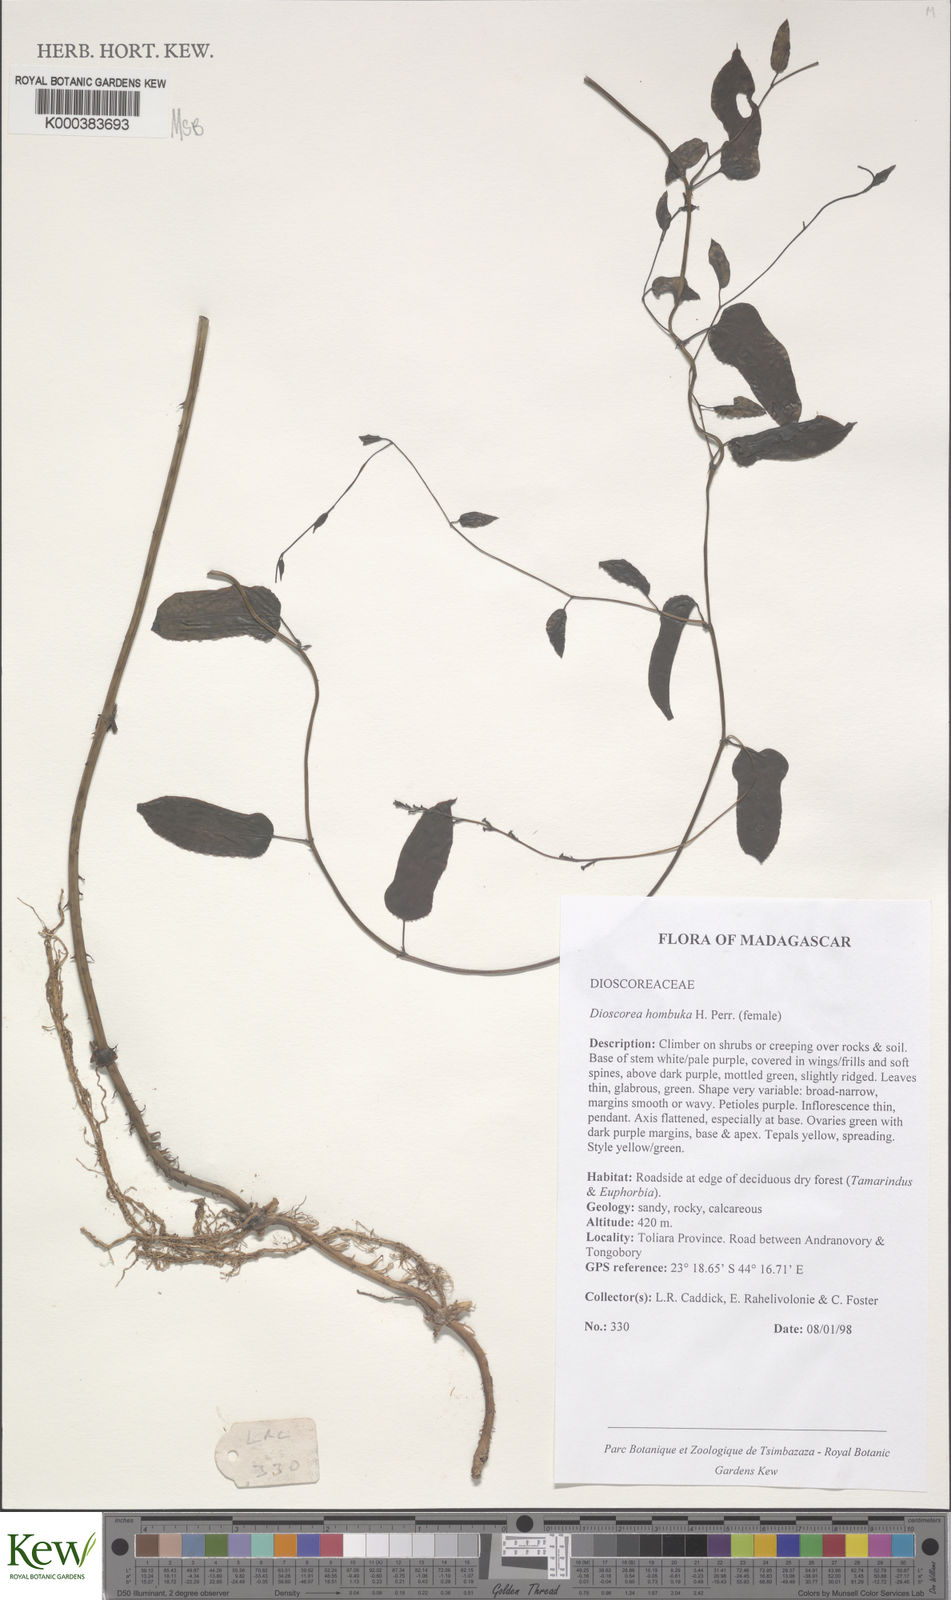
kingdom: Plantae
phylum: Tracheophyta
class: Liliopsida
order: Dioscoreales
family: Dioscoreaceae
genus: Dioscorea
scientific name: Dioscorea
